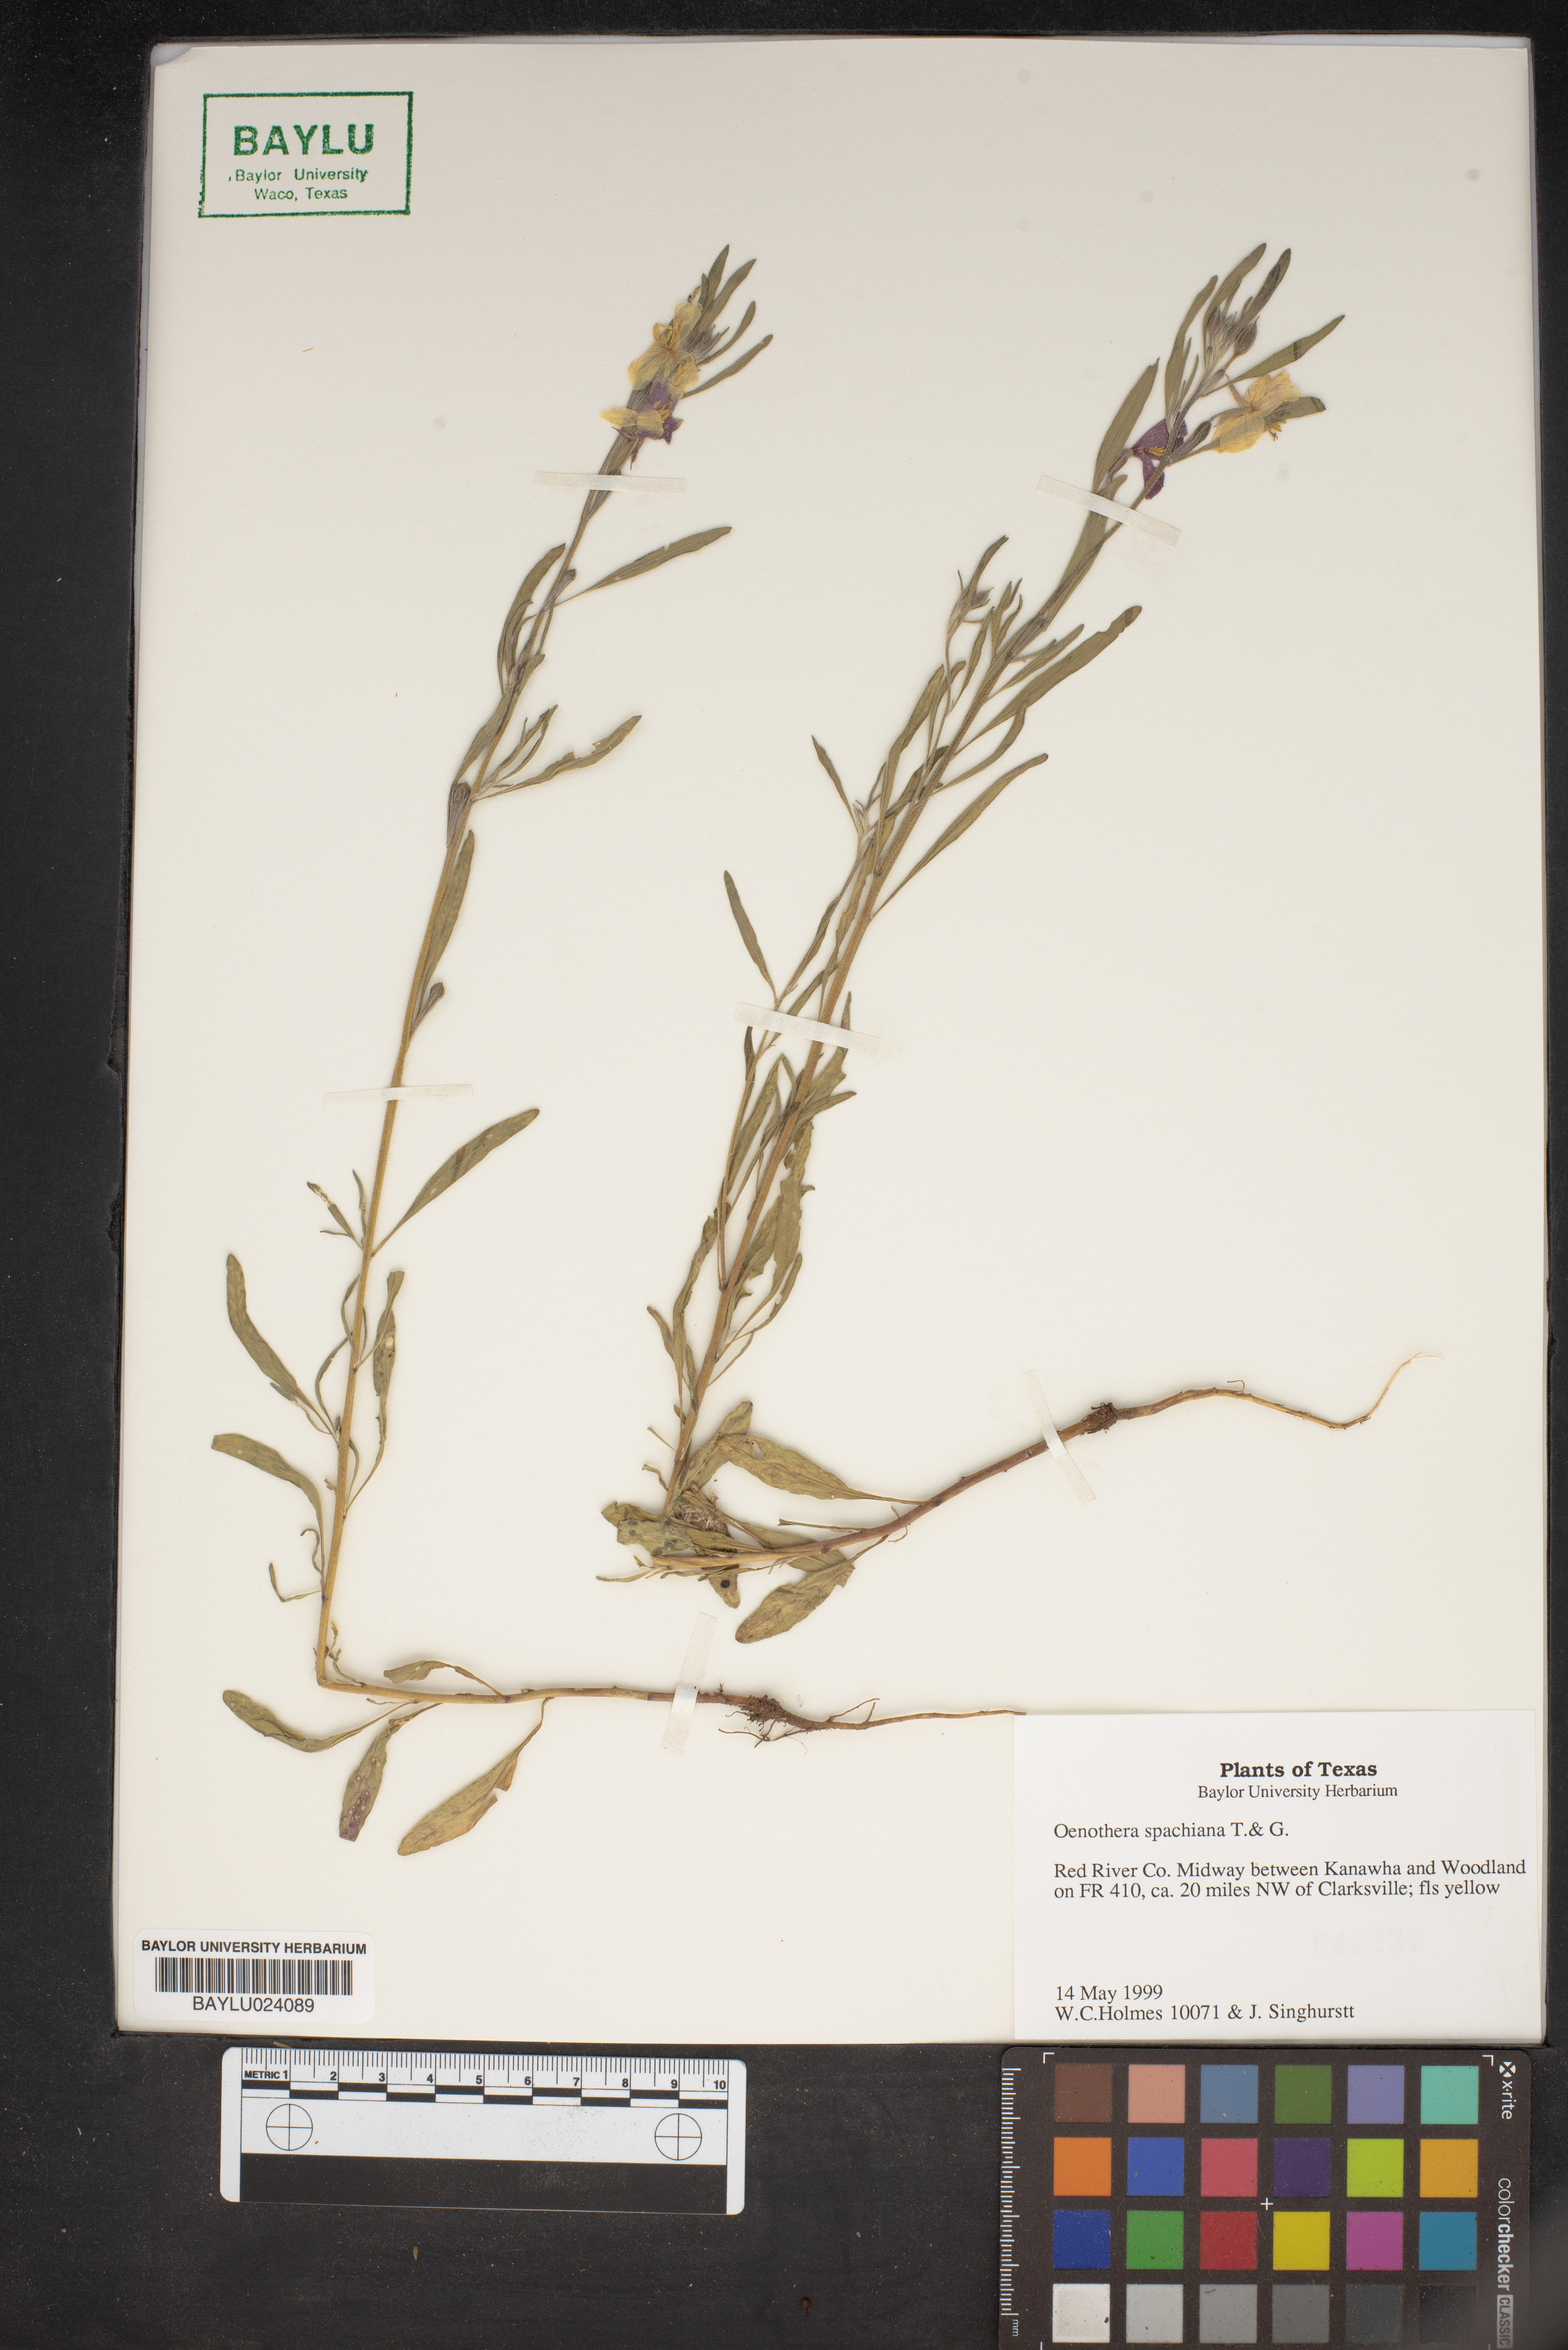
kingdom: Plantae
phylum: Tracheophyta
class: Magnoliopsida
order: Myrtales
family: Onagraceae
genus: Oenothera
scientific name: Oenothera spachiana
